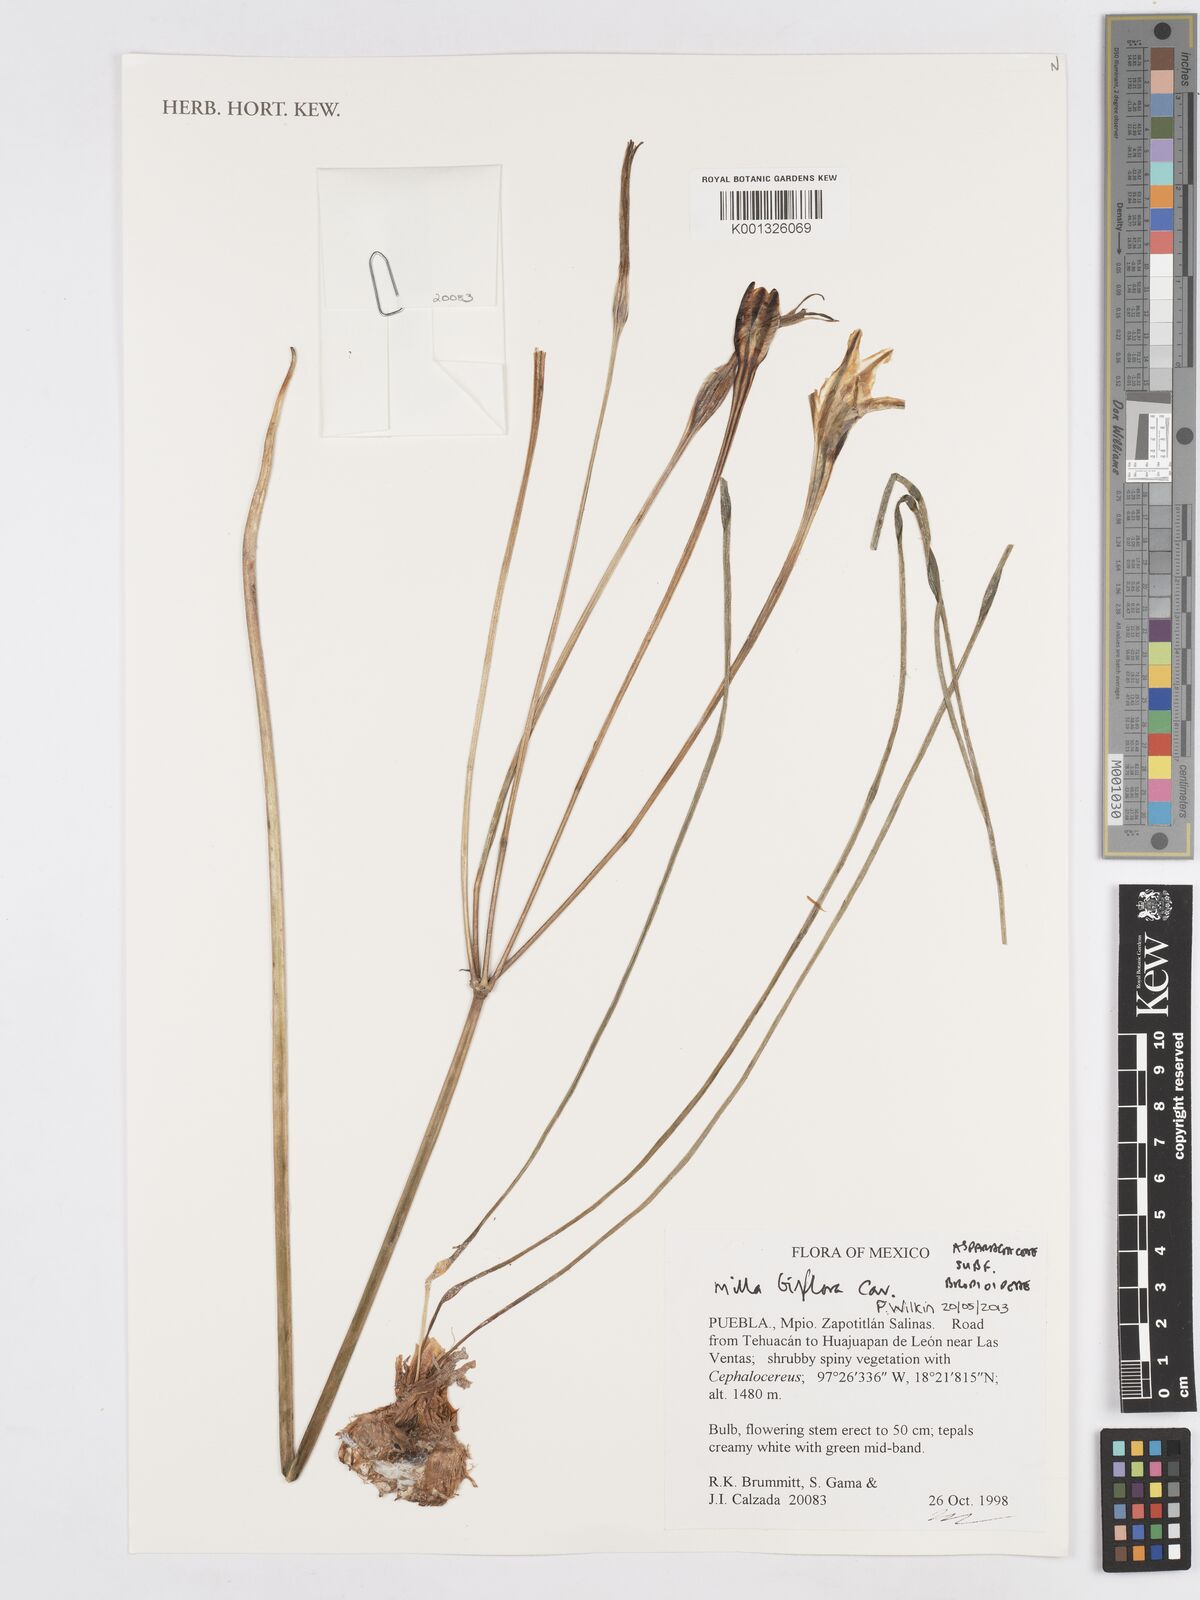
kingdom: Plantae
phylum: Tracheophyta
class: Liliopsida
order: Asparagales
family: Asparagaceae
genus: Milla
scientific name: Milla biflora
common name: Mexican-star
